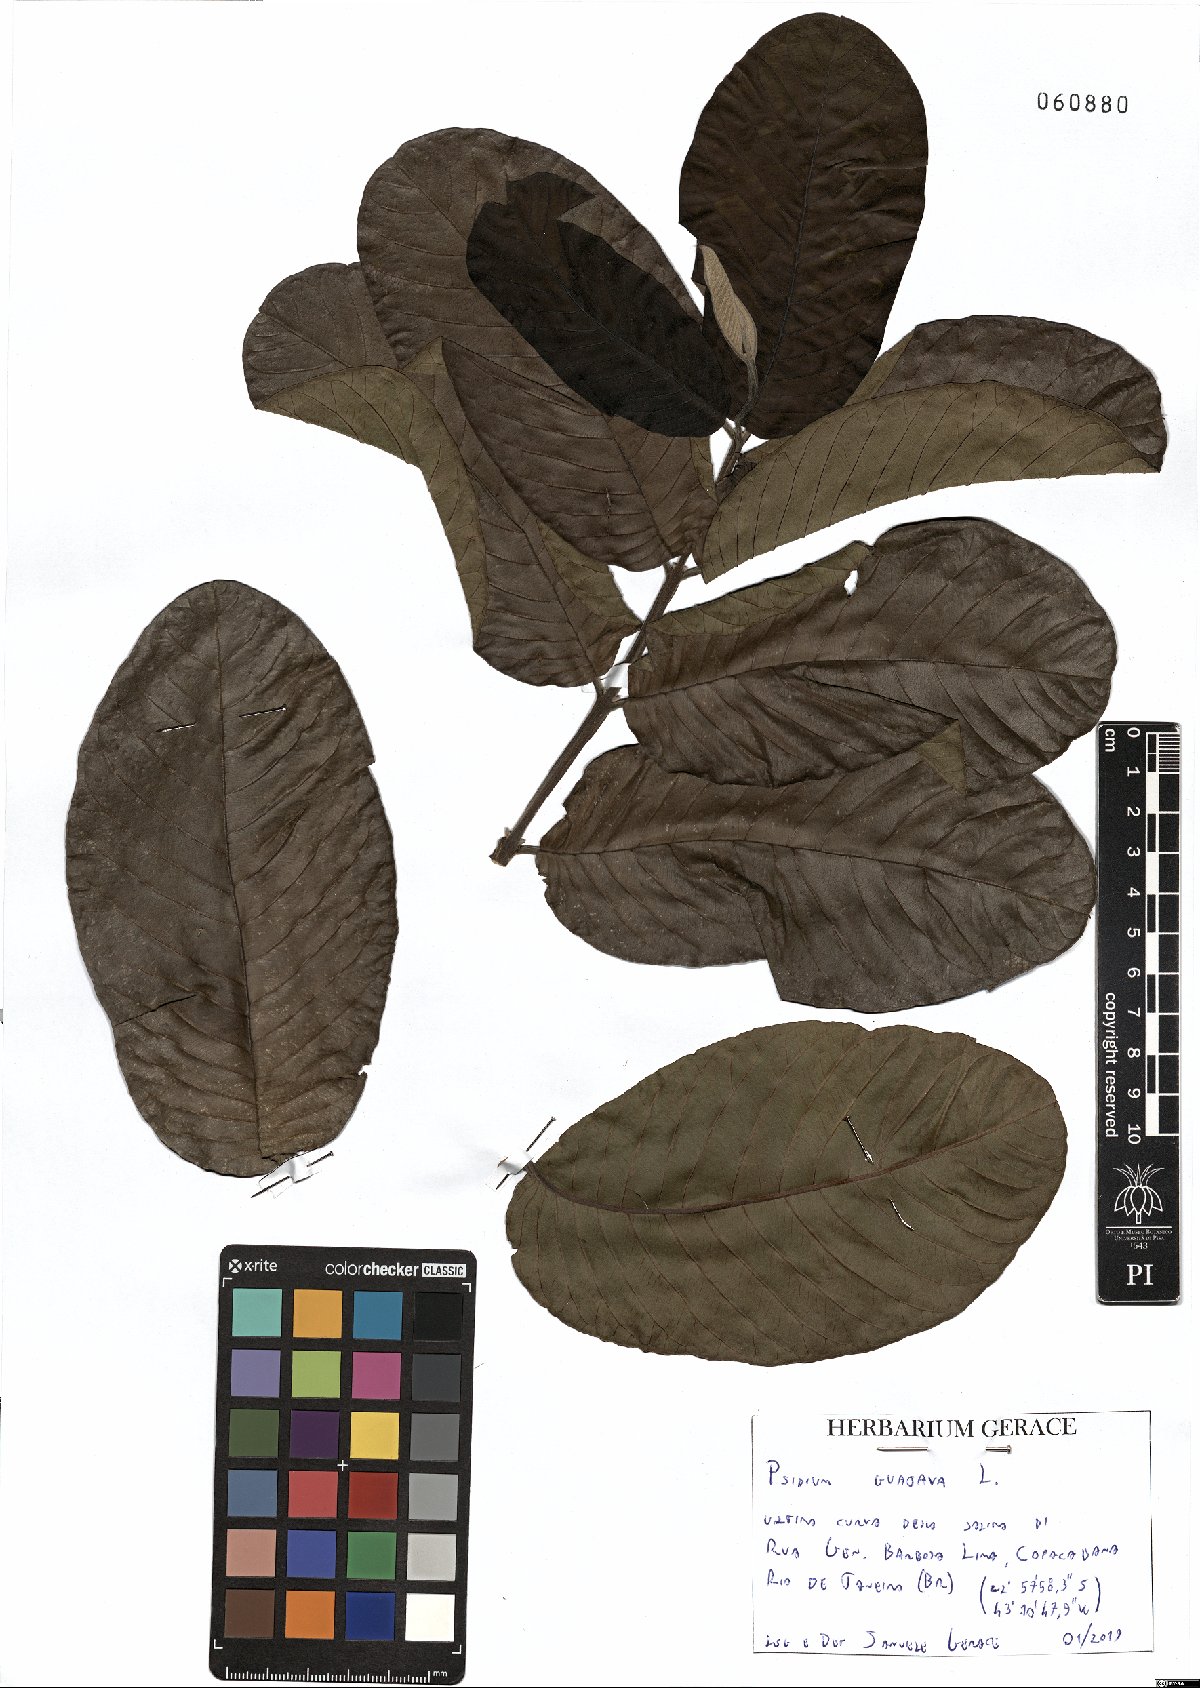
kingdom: Plantae
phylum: Tracheophyta
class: Magnoliopsida
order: Myrtales
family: Myrtaceae
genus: Psidium
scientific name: Psidium guajava
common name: Guava
